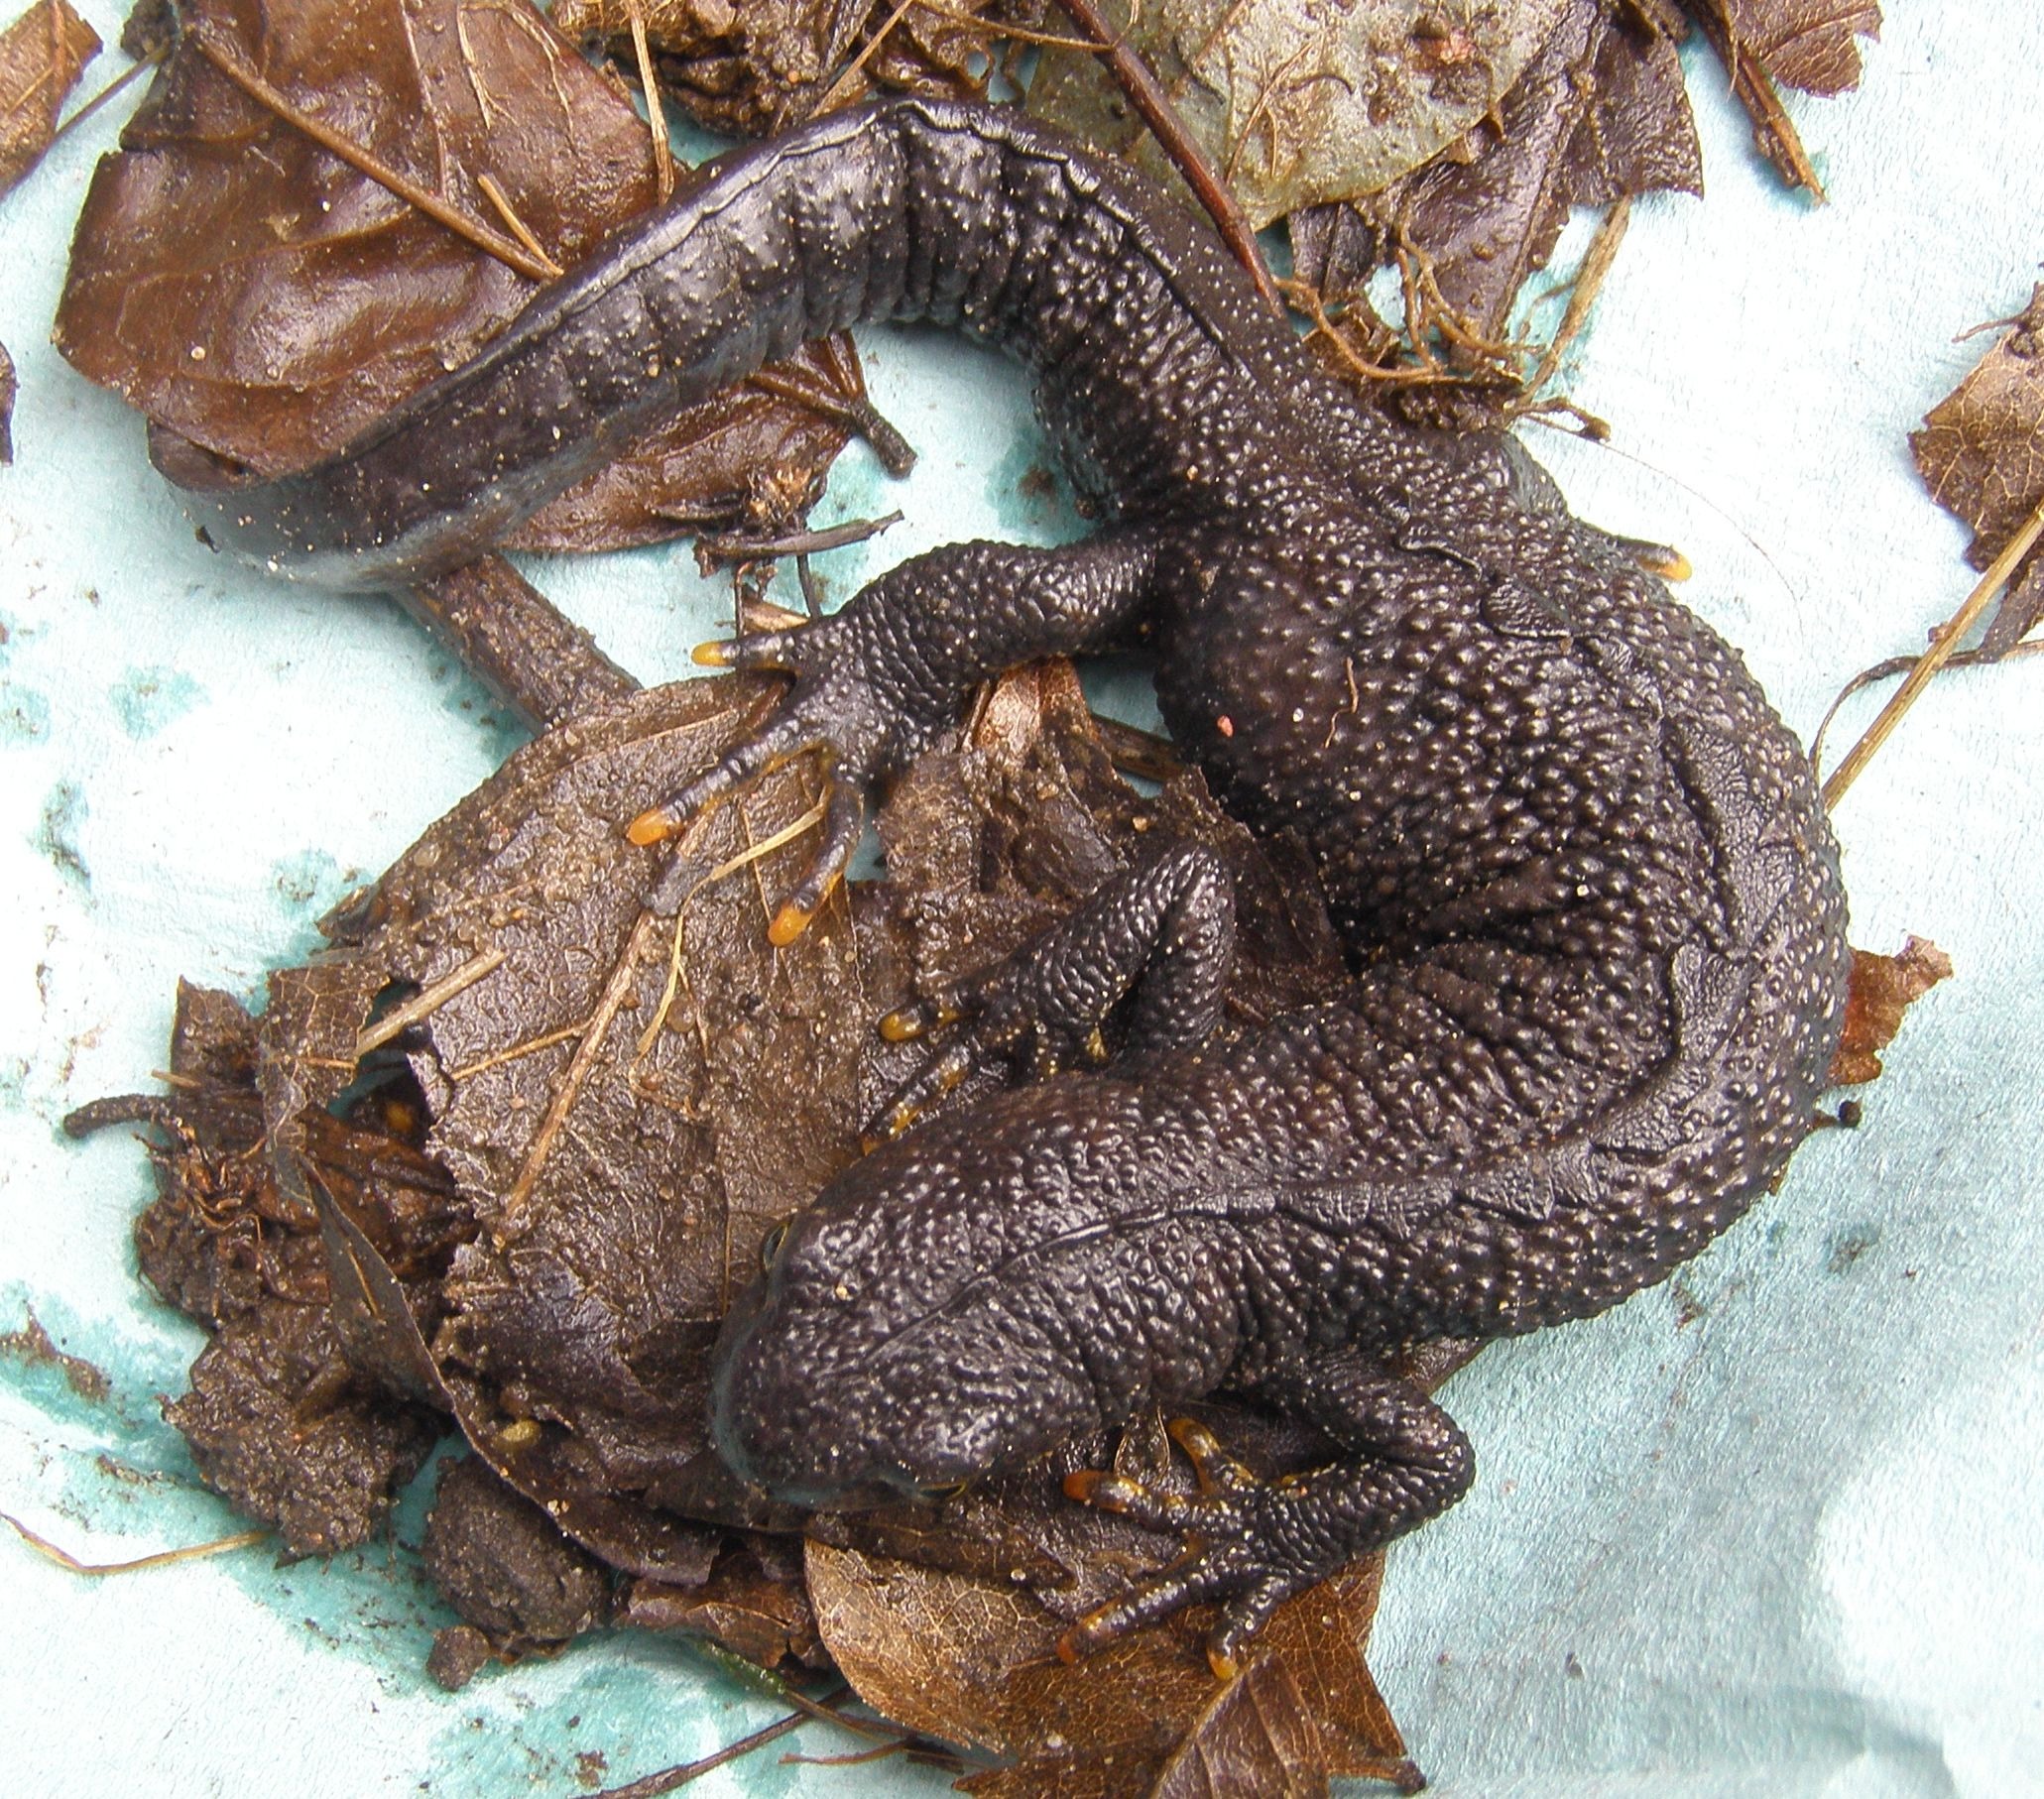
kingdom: Animalia
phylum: Chordata
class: Amphibia
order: Caudata
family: Salamandridae
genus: Triturus
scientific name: Triturus cristatus
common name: Stor vandsalamander
